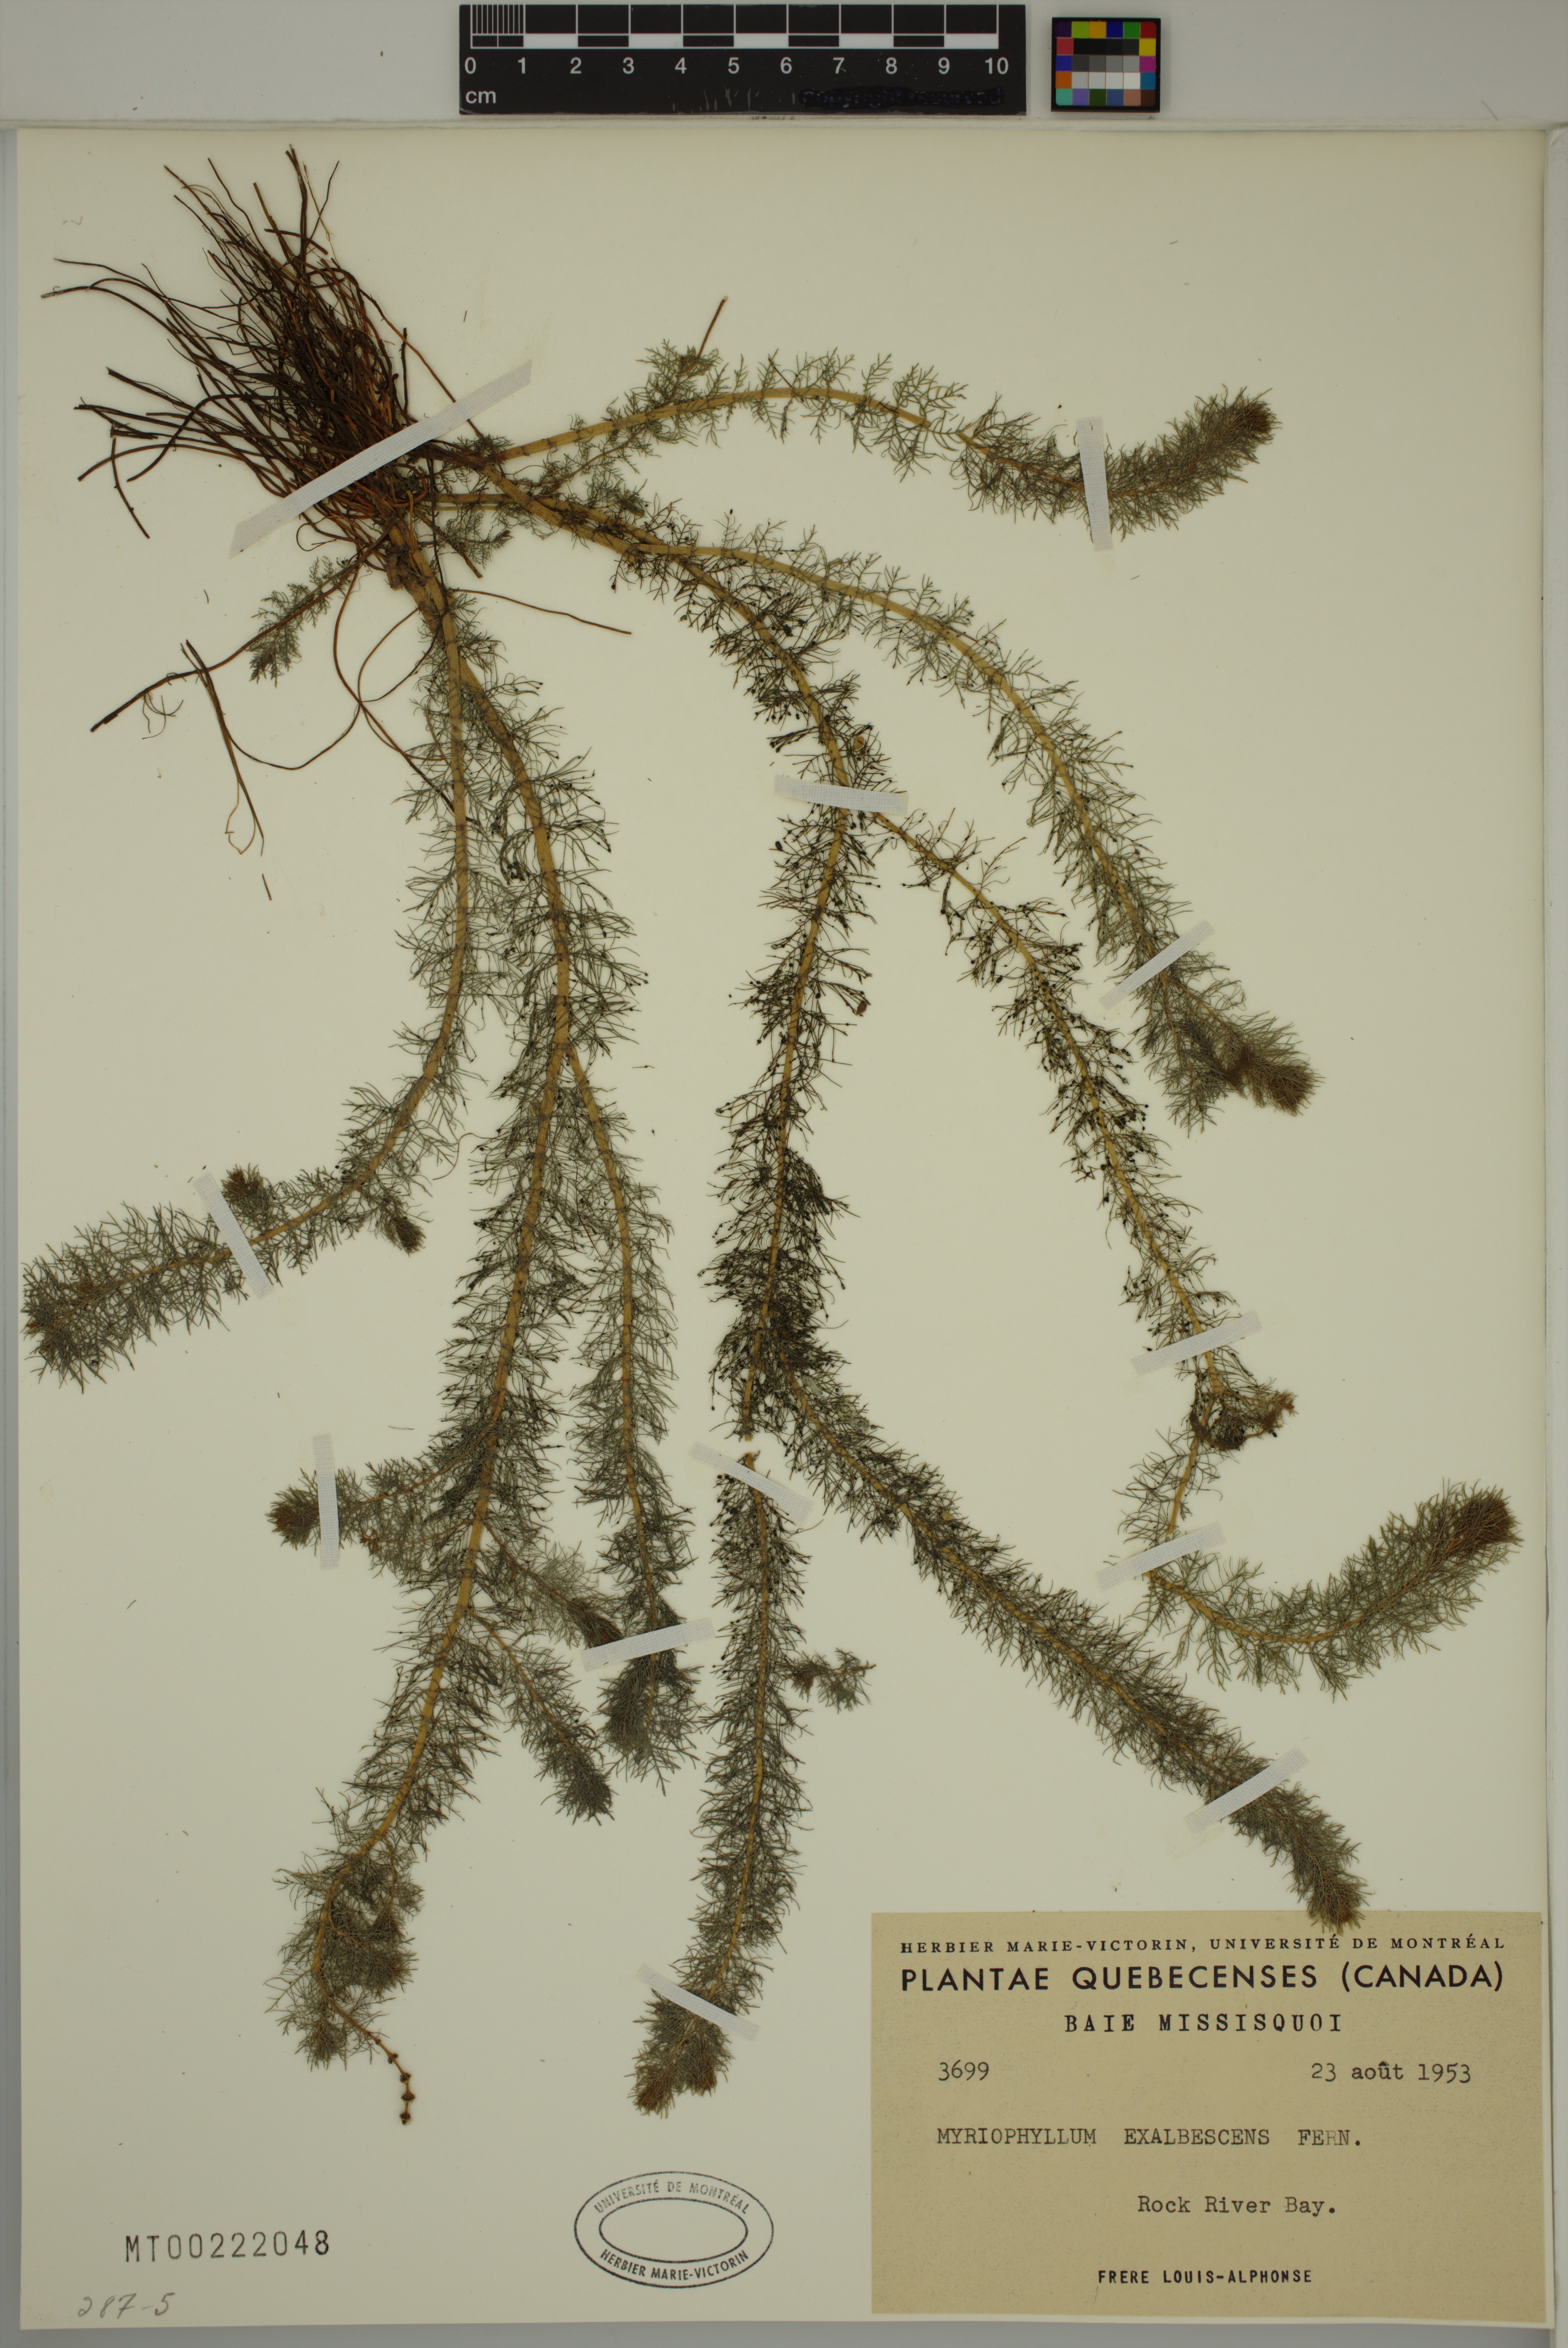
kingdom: Plantae
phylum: Tracheophyta
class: Magnoliopsida
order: Saxifragales
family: Haloragaceae
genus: Myriophyllum
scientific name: Myriophyllum sibiricum
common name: Siberian water-milfoil
